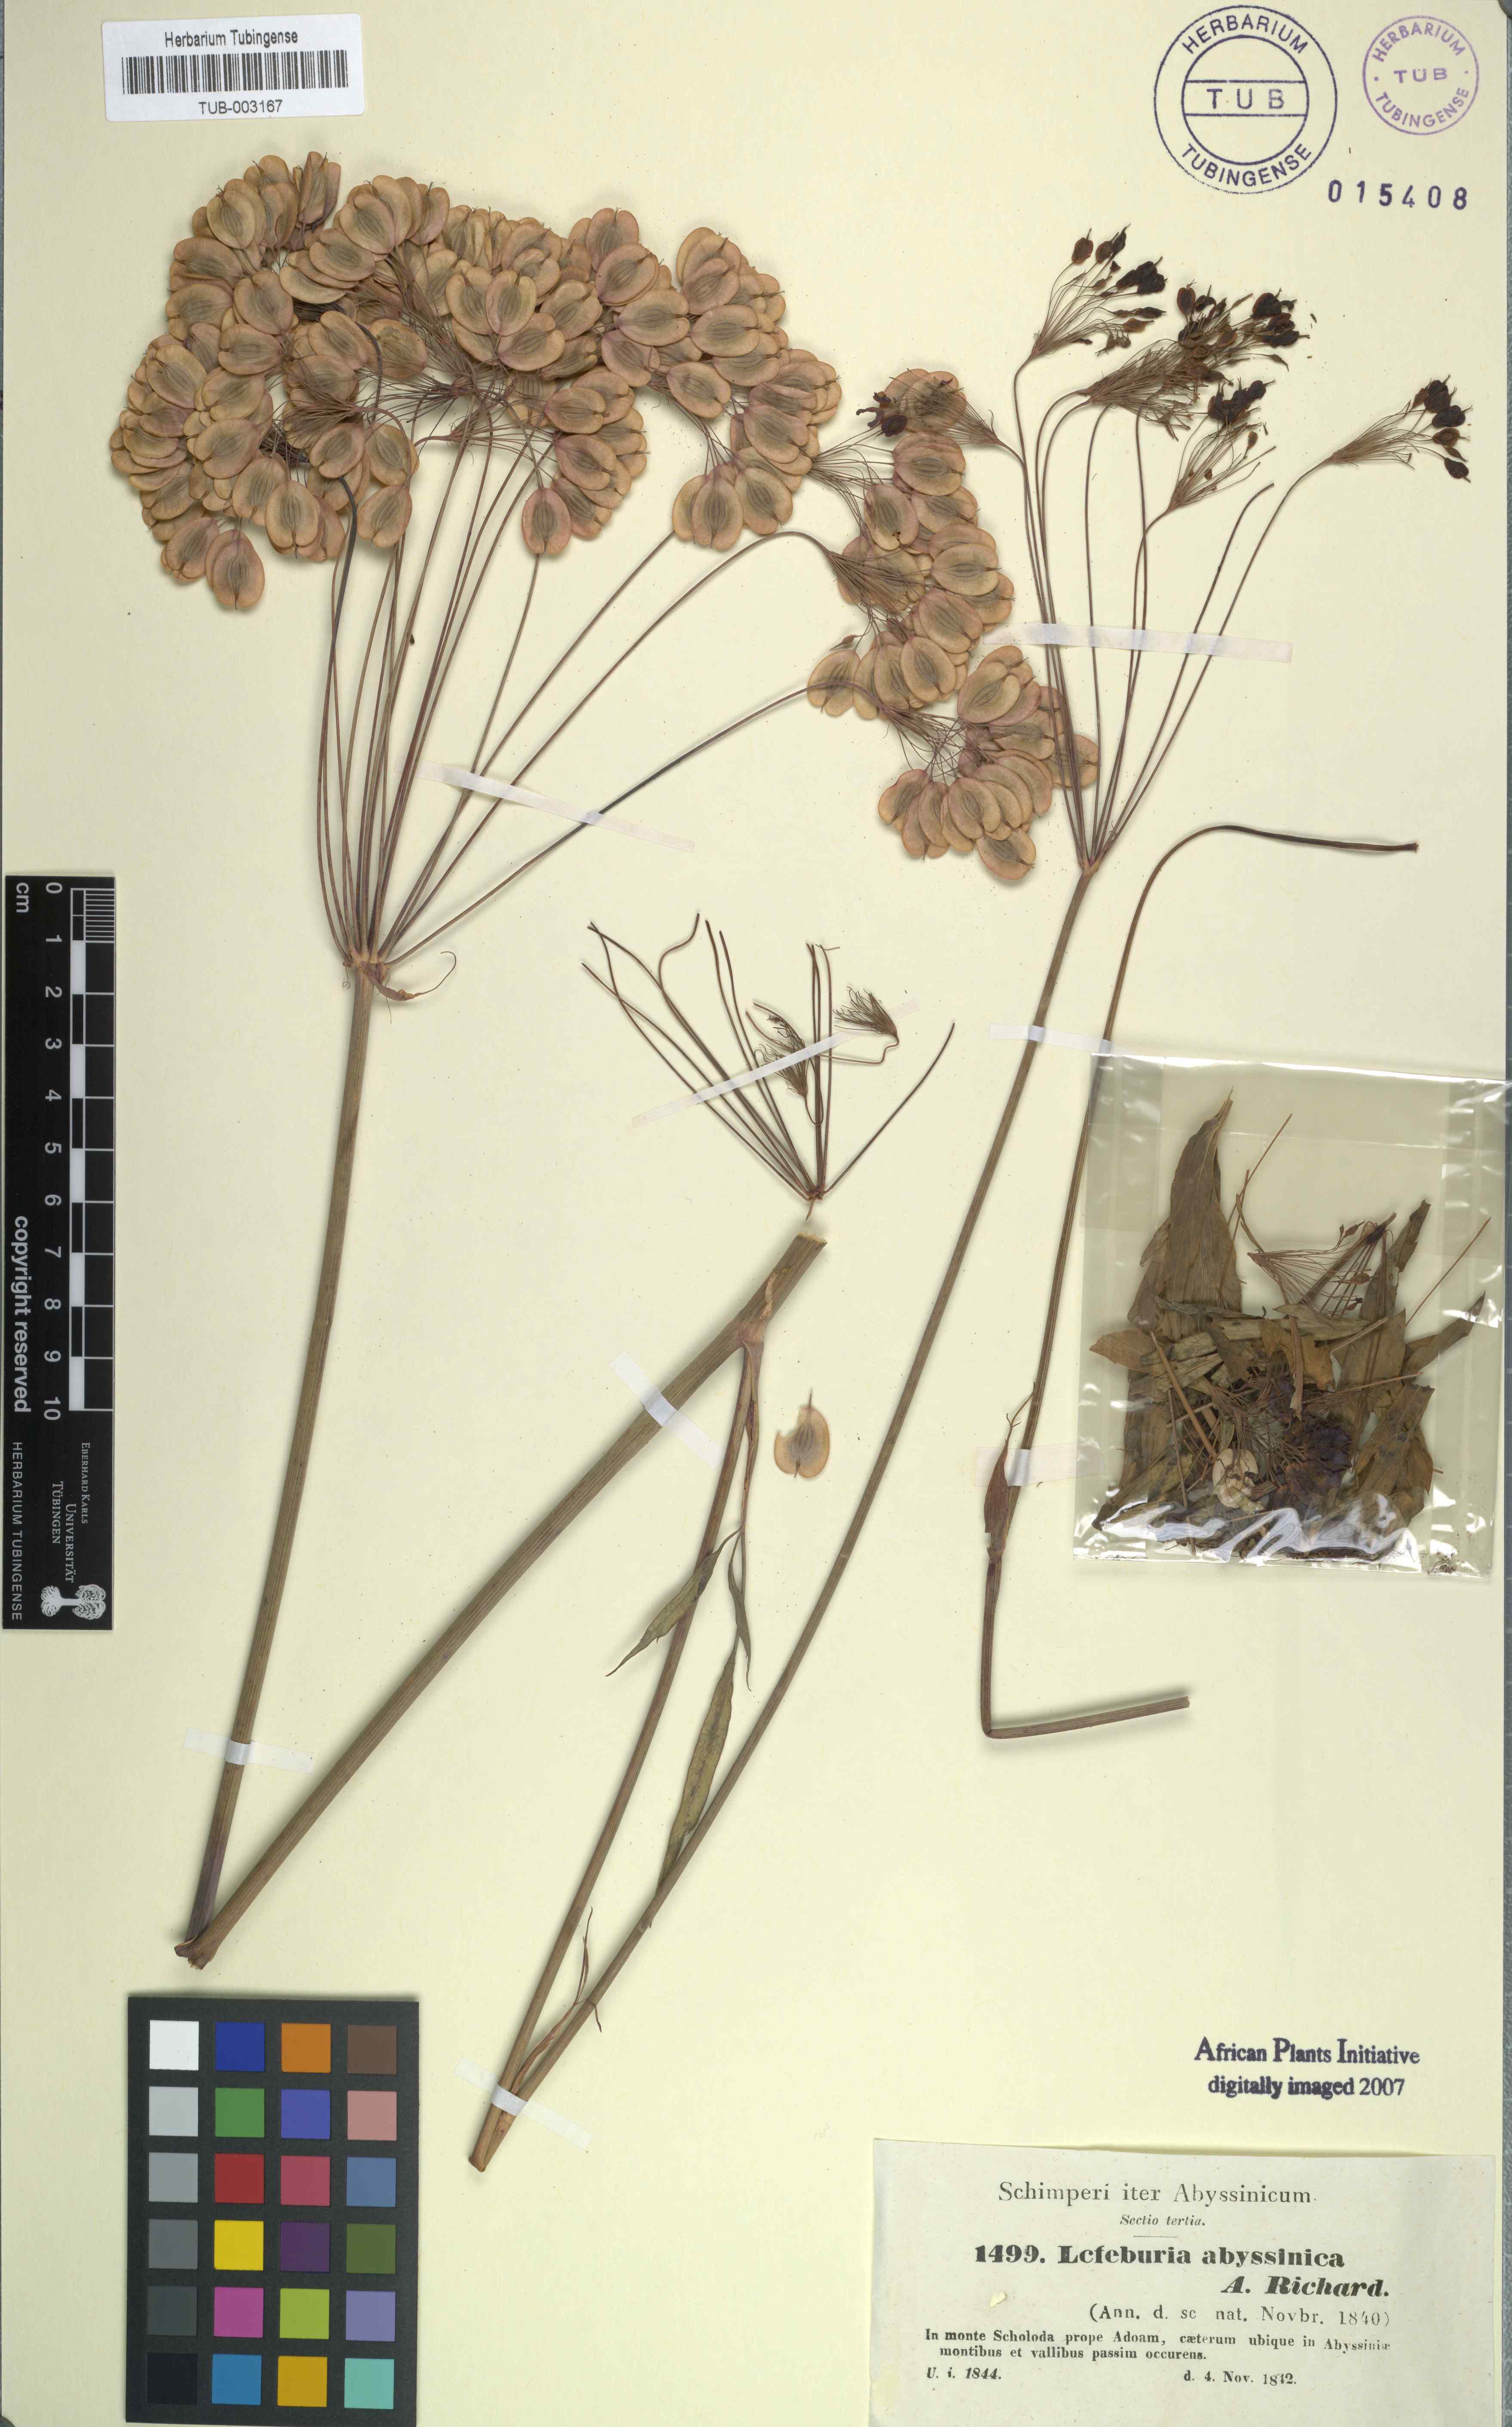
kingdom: Plantae
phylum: Tracheophyta
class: Magnoliopsida
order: Apiales
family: Apiaceae
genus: Lefebvrea
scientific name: Lefebvrea abyssinica
